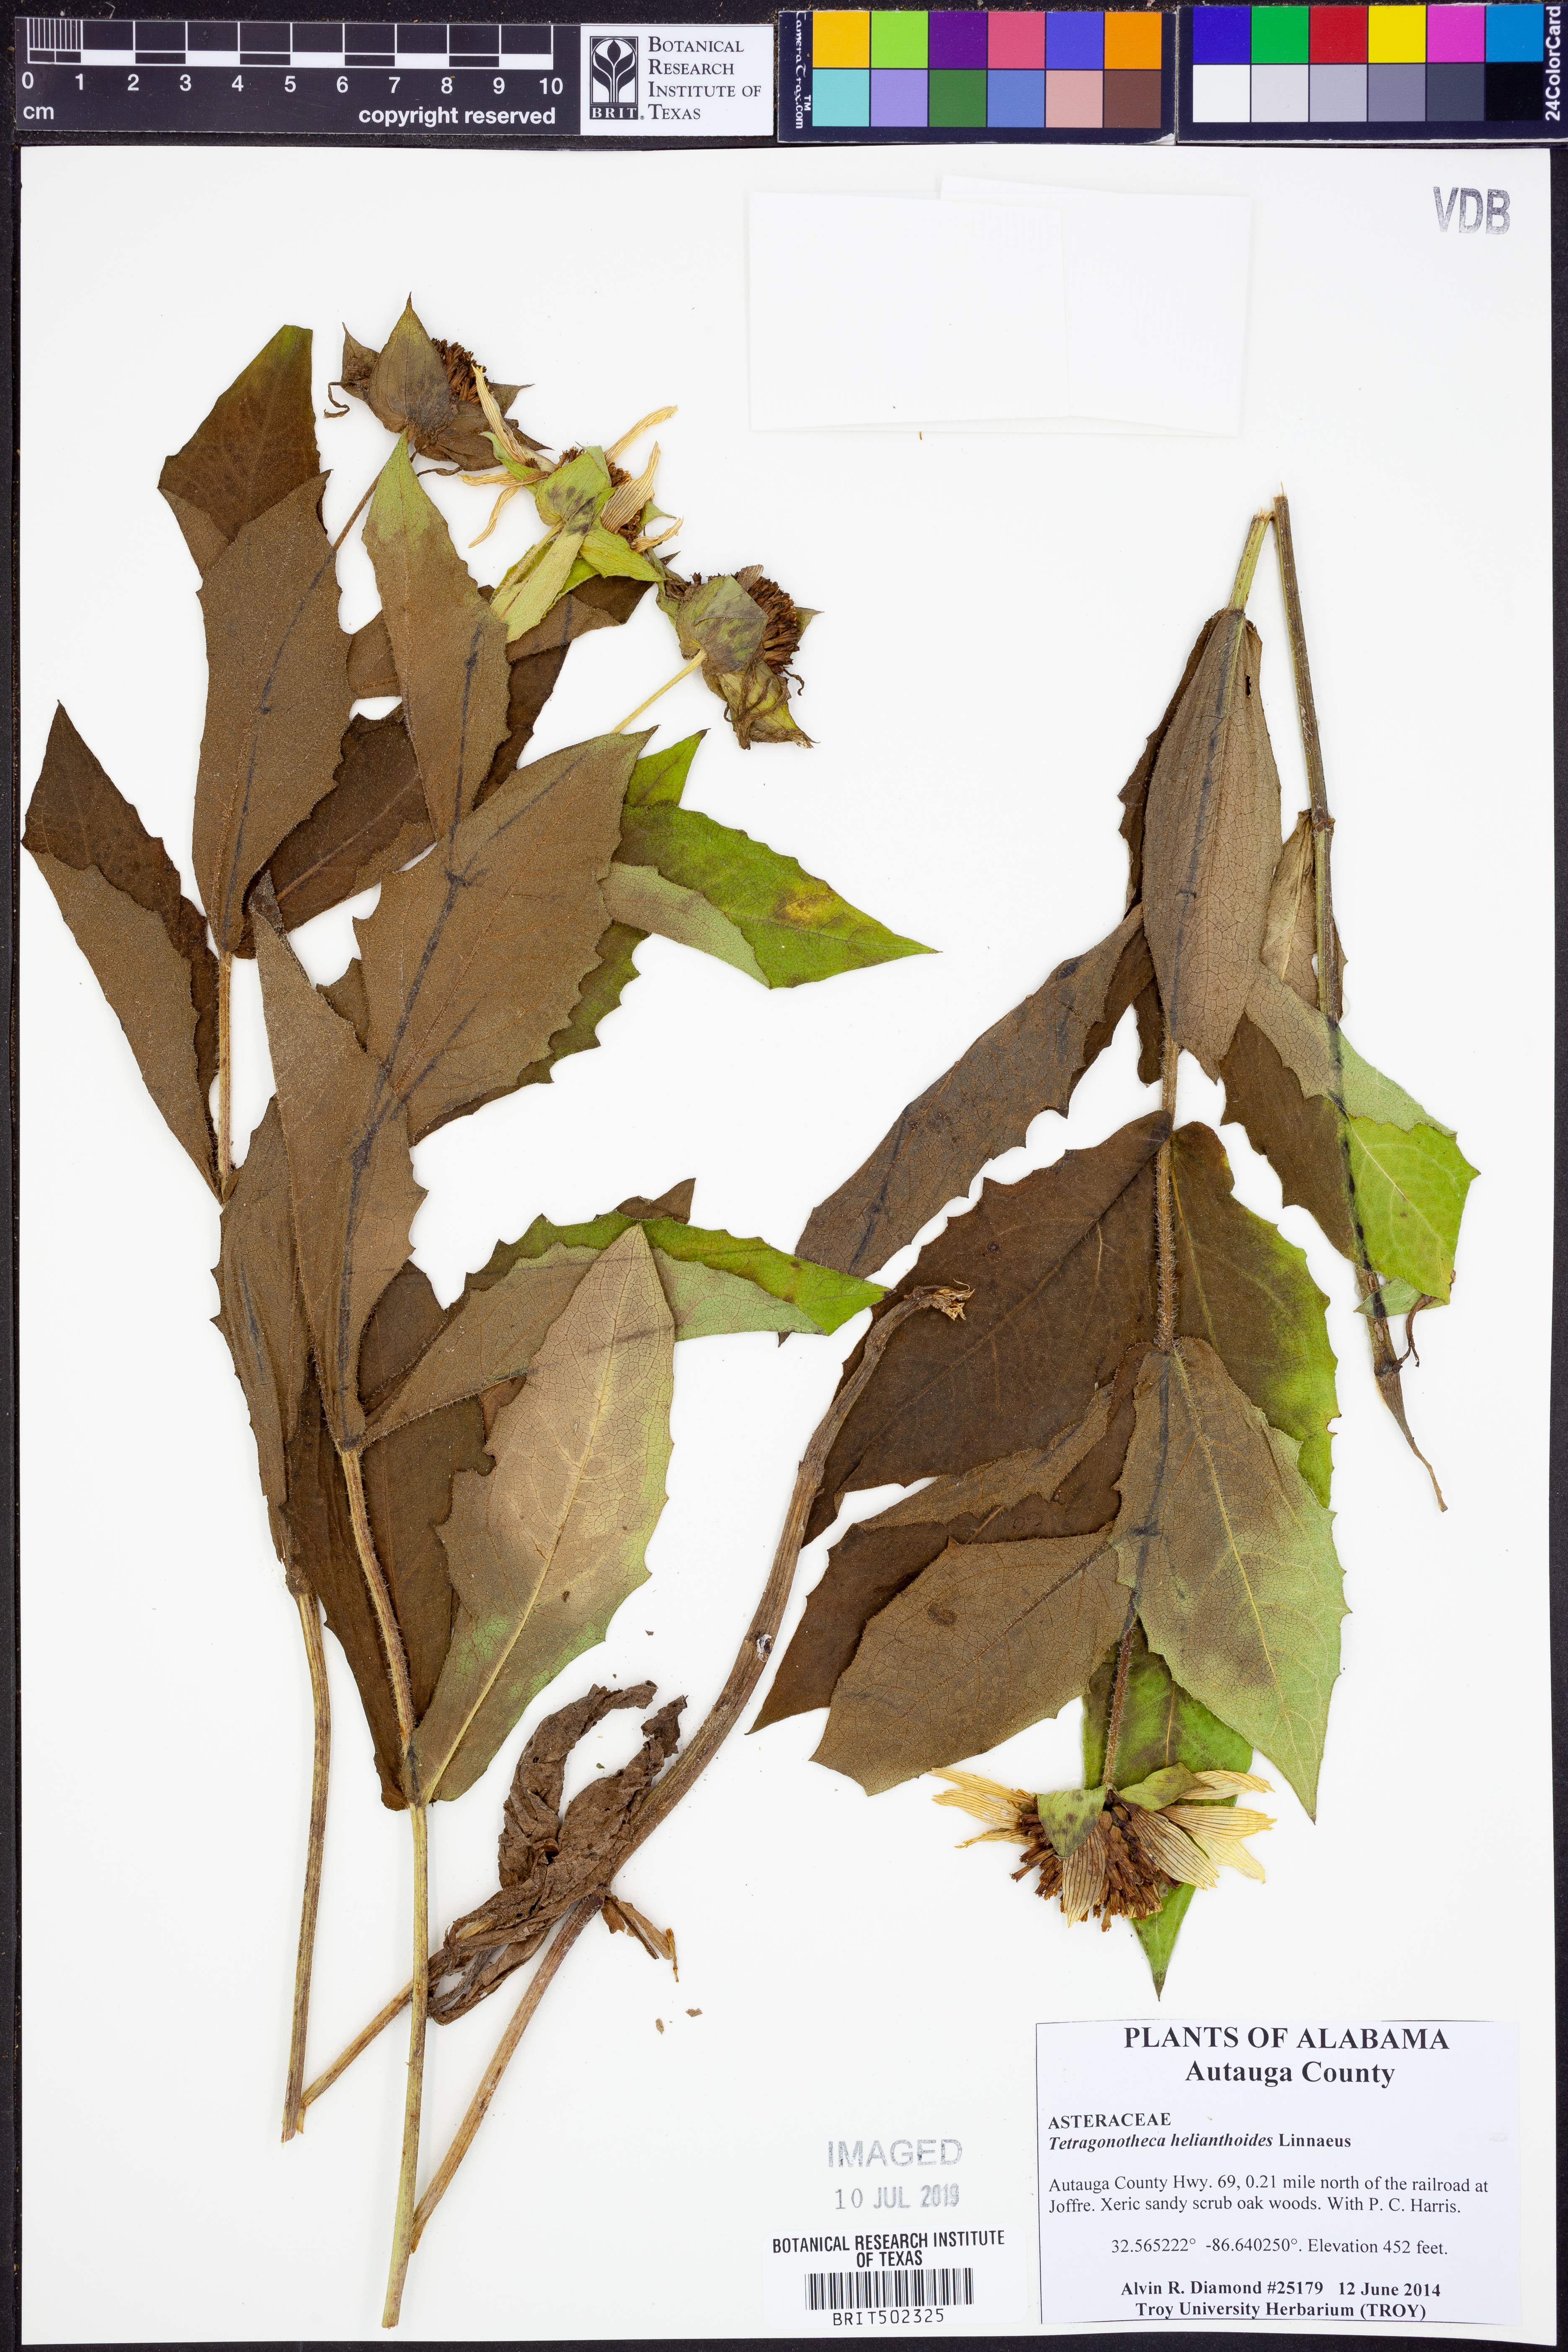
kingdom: Plantae
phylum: Tracheophyta
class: Magnoliopsida
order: Asterales
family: Asteraceae
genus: Tetragonotheca
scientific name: Tetragonotheca helianthoides
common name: Pineland-ginseng
